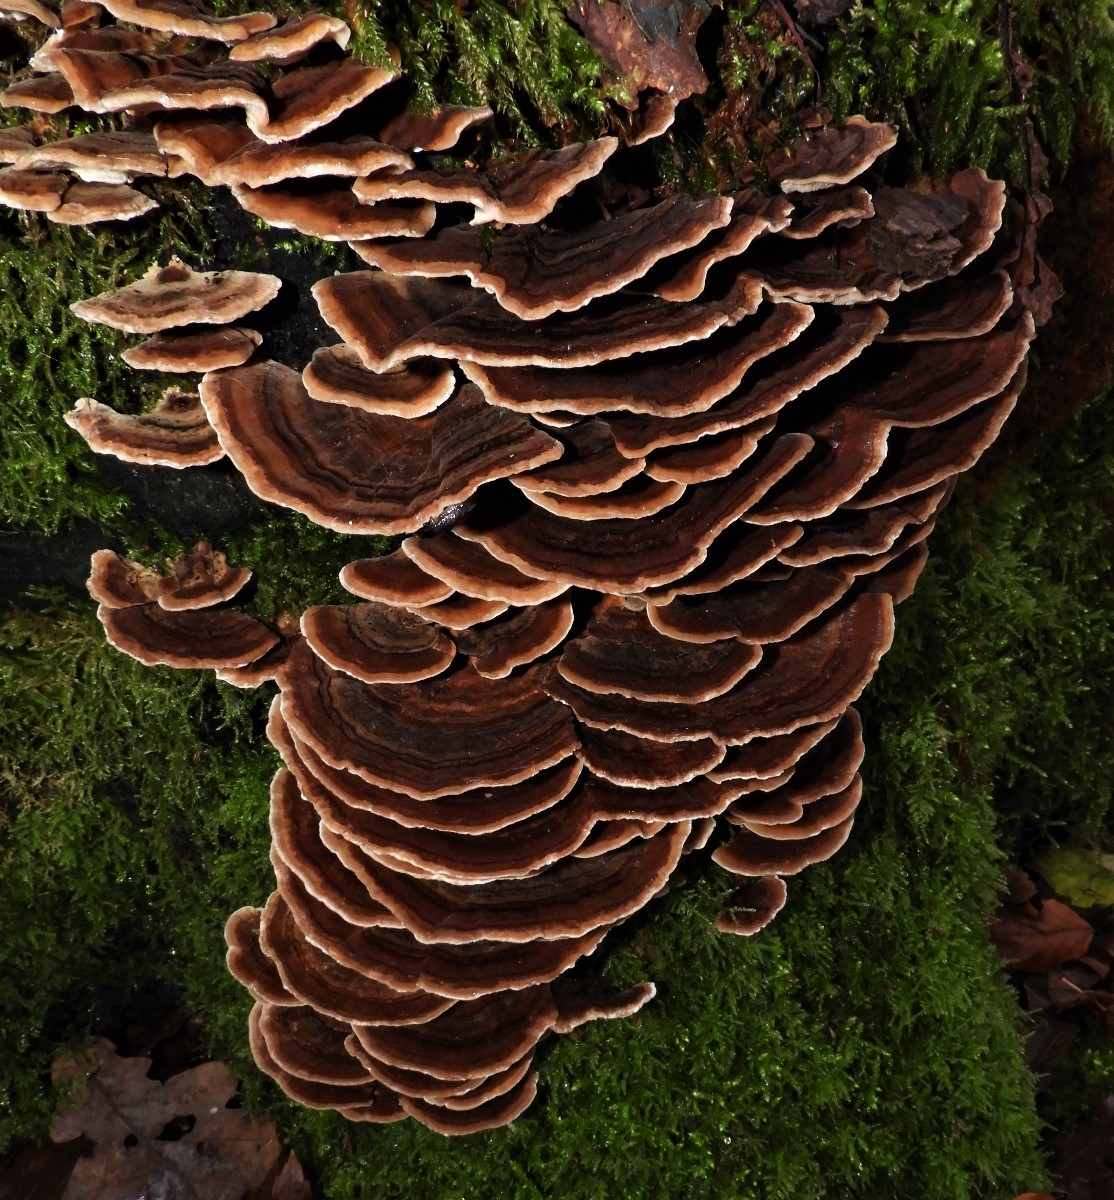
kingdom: Fungi
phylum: Basidiomycota
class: Agaricomycetes
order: Polyporales
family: Polyporaceae
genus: Trametes
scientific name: Trametes versicolor
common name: broget læderporesvamp
